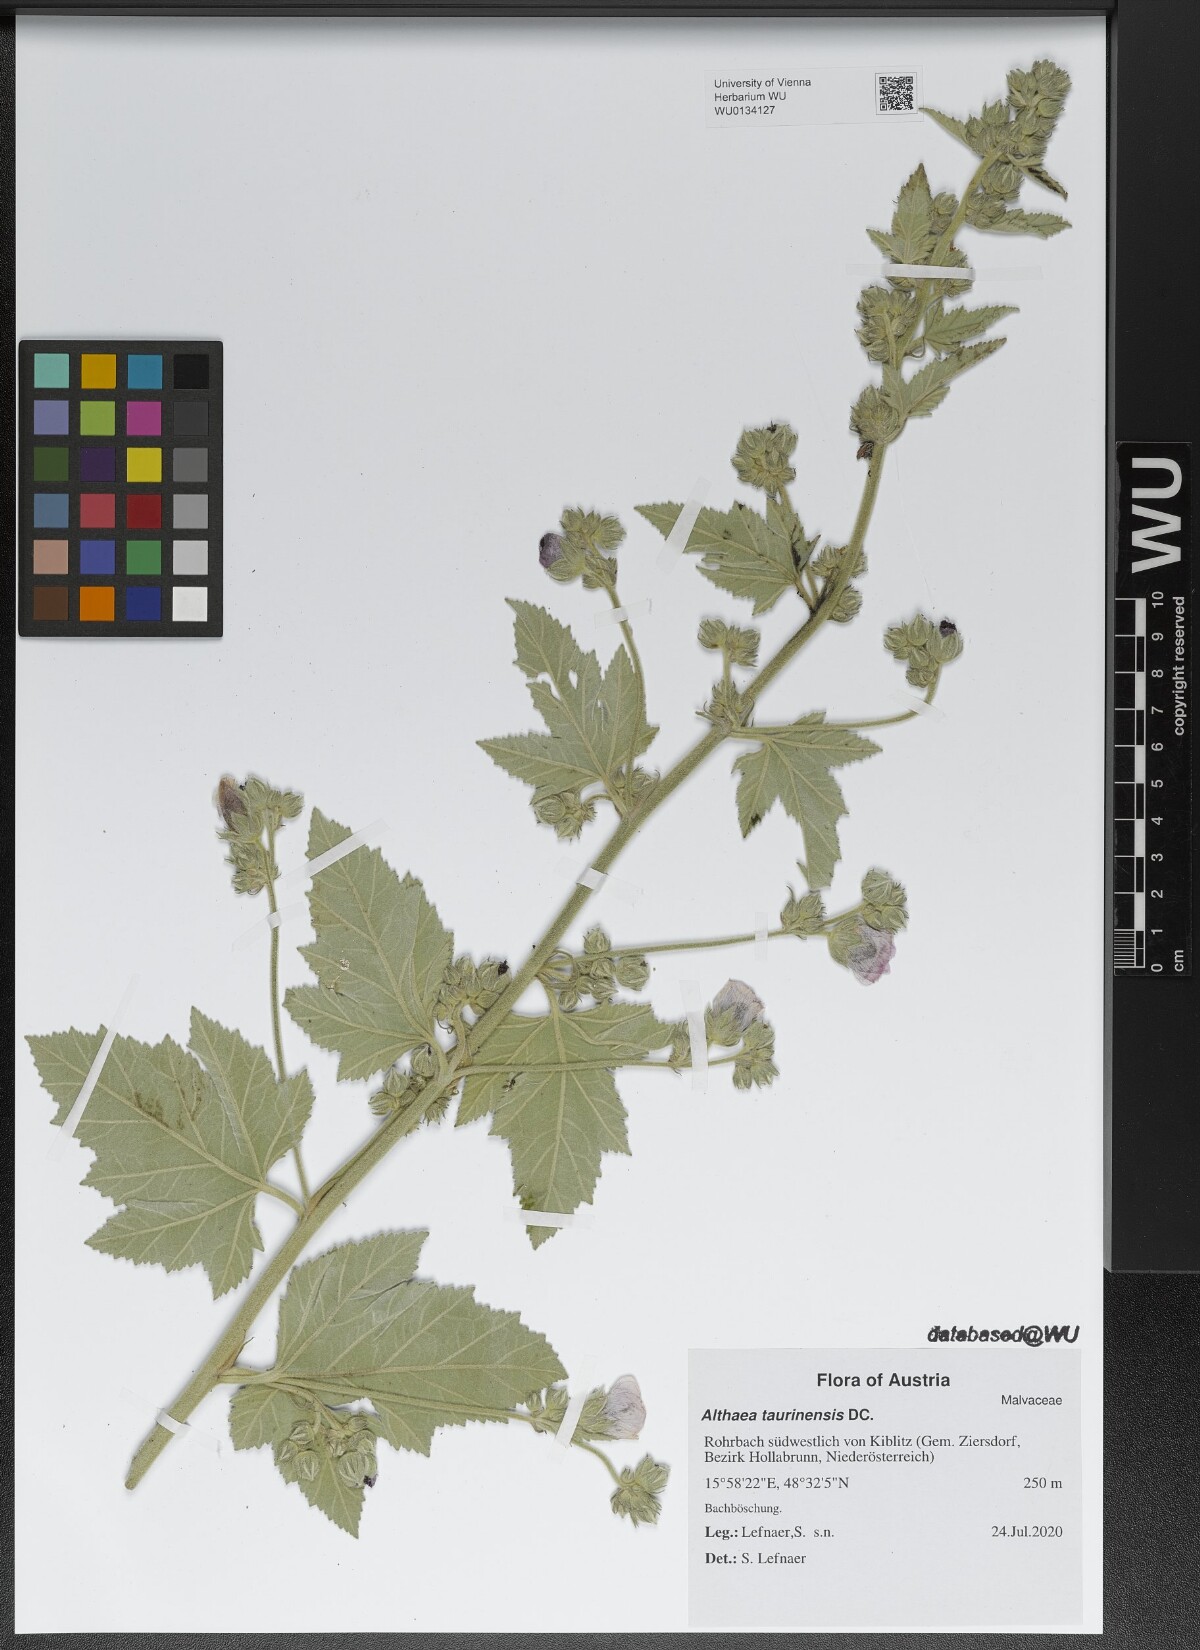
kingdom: Plantae
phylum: Tracheophyta
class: Magnoliopsida
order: Malvales
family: Malvaceae
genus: Althaea
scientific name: Althaea taurinensis
